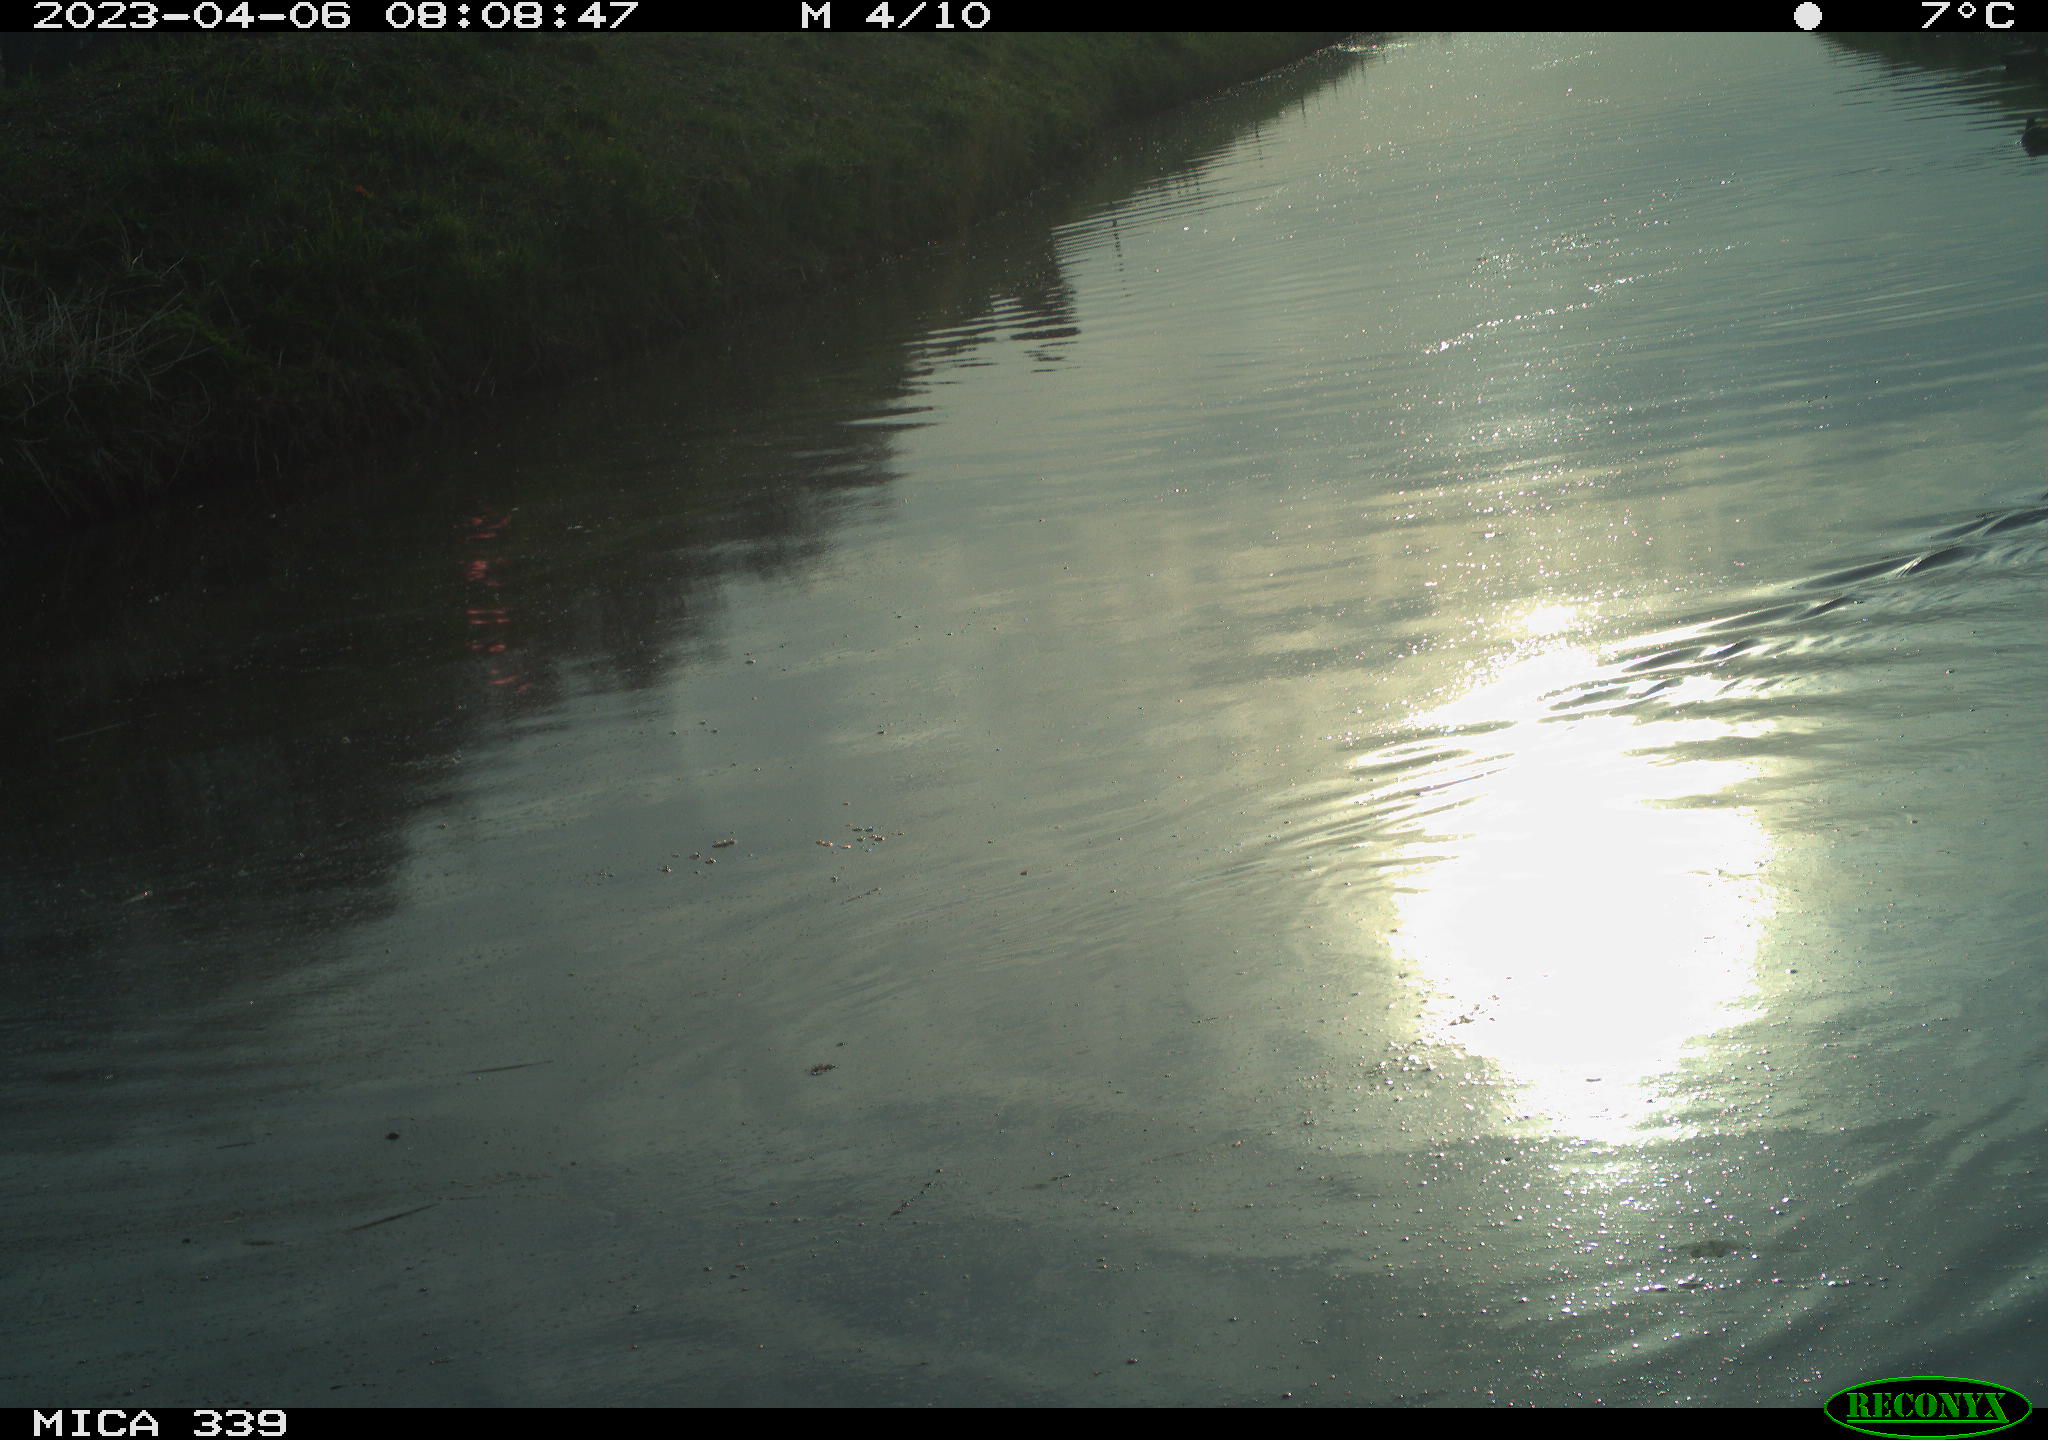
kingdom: Animalia
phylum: Chordata
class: Aves
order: Anseriformes
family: Anatidae
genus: Anas
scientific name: Anas platyrhynchos
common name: Mallard
